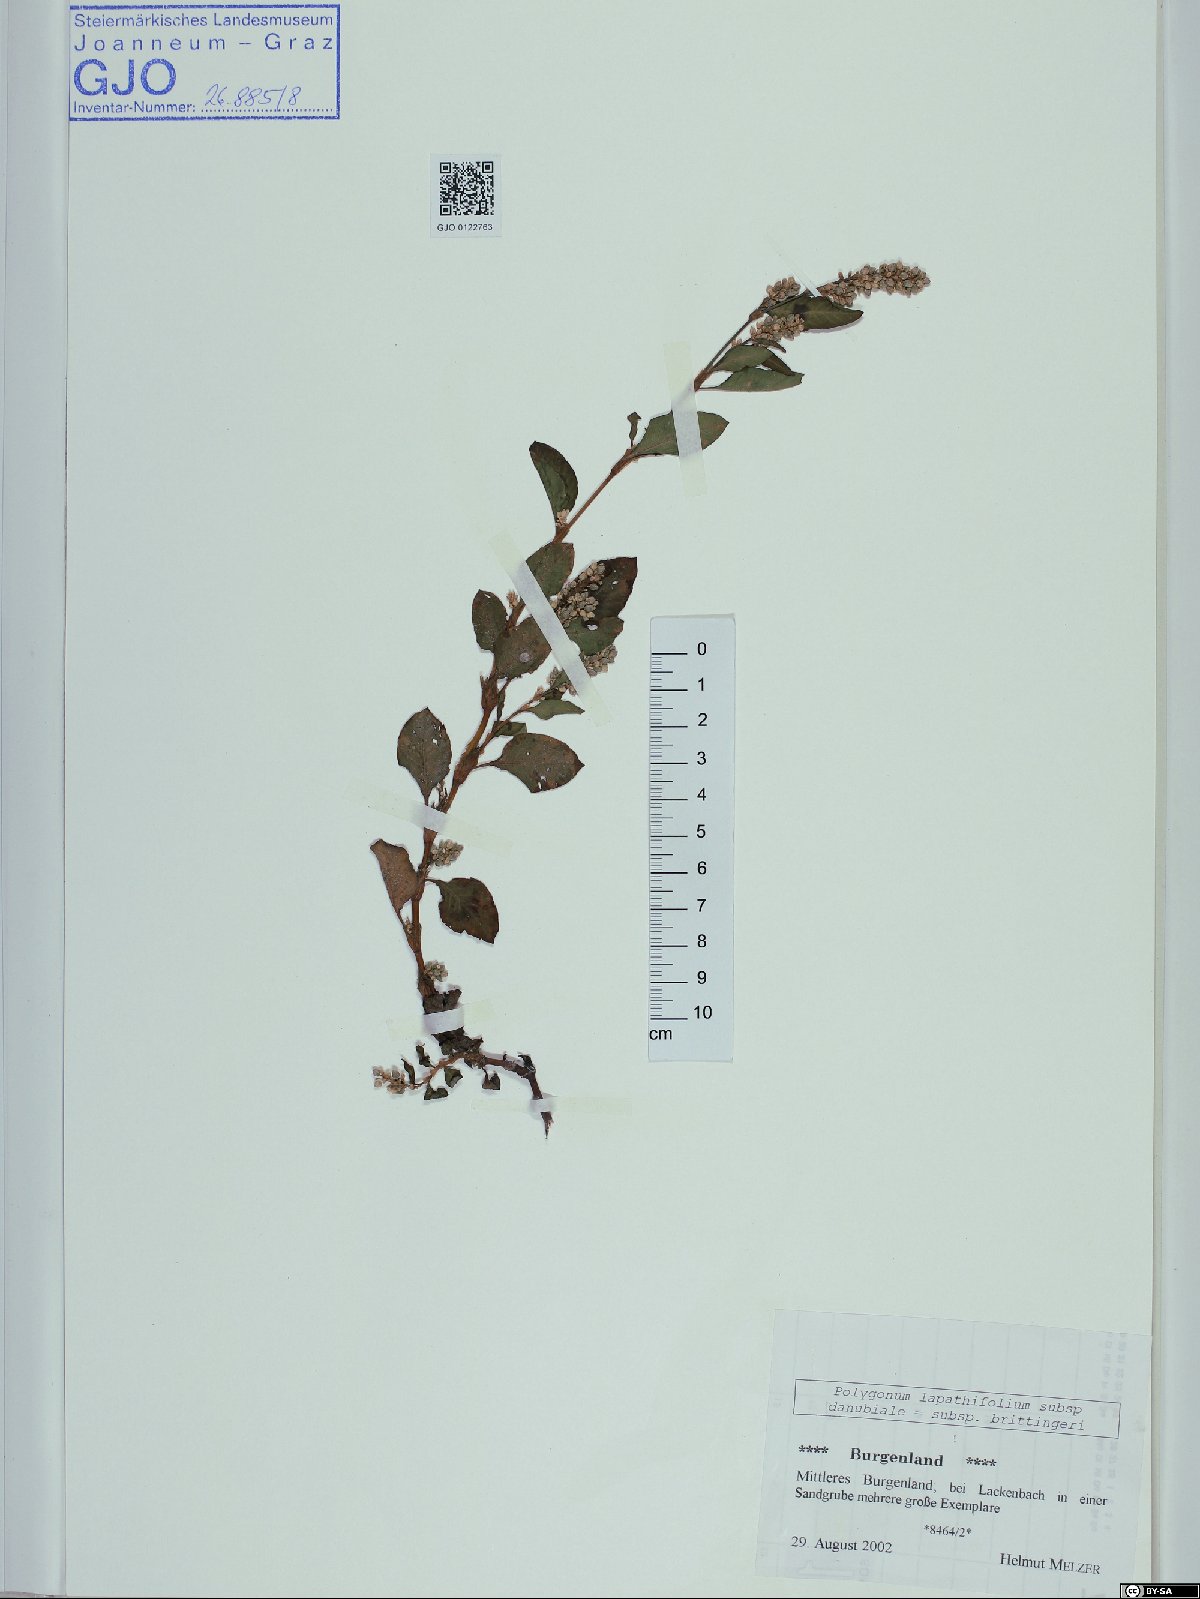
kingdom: Plantae
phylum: Tracheophyta
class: Magnoliopsida
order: Caryophyllales
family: Polygonaceae
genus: Persicaria
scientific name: Persicaria lapathifolia
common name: Curlytop knotweed
